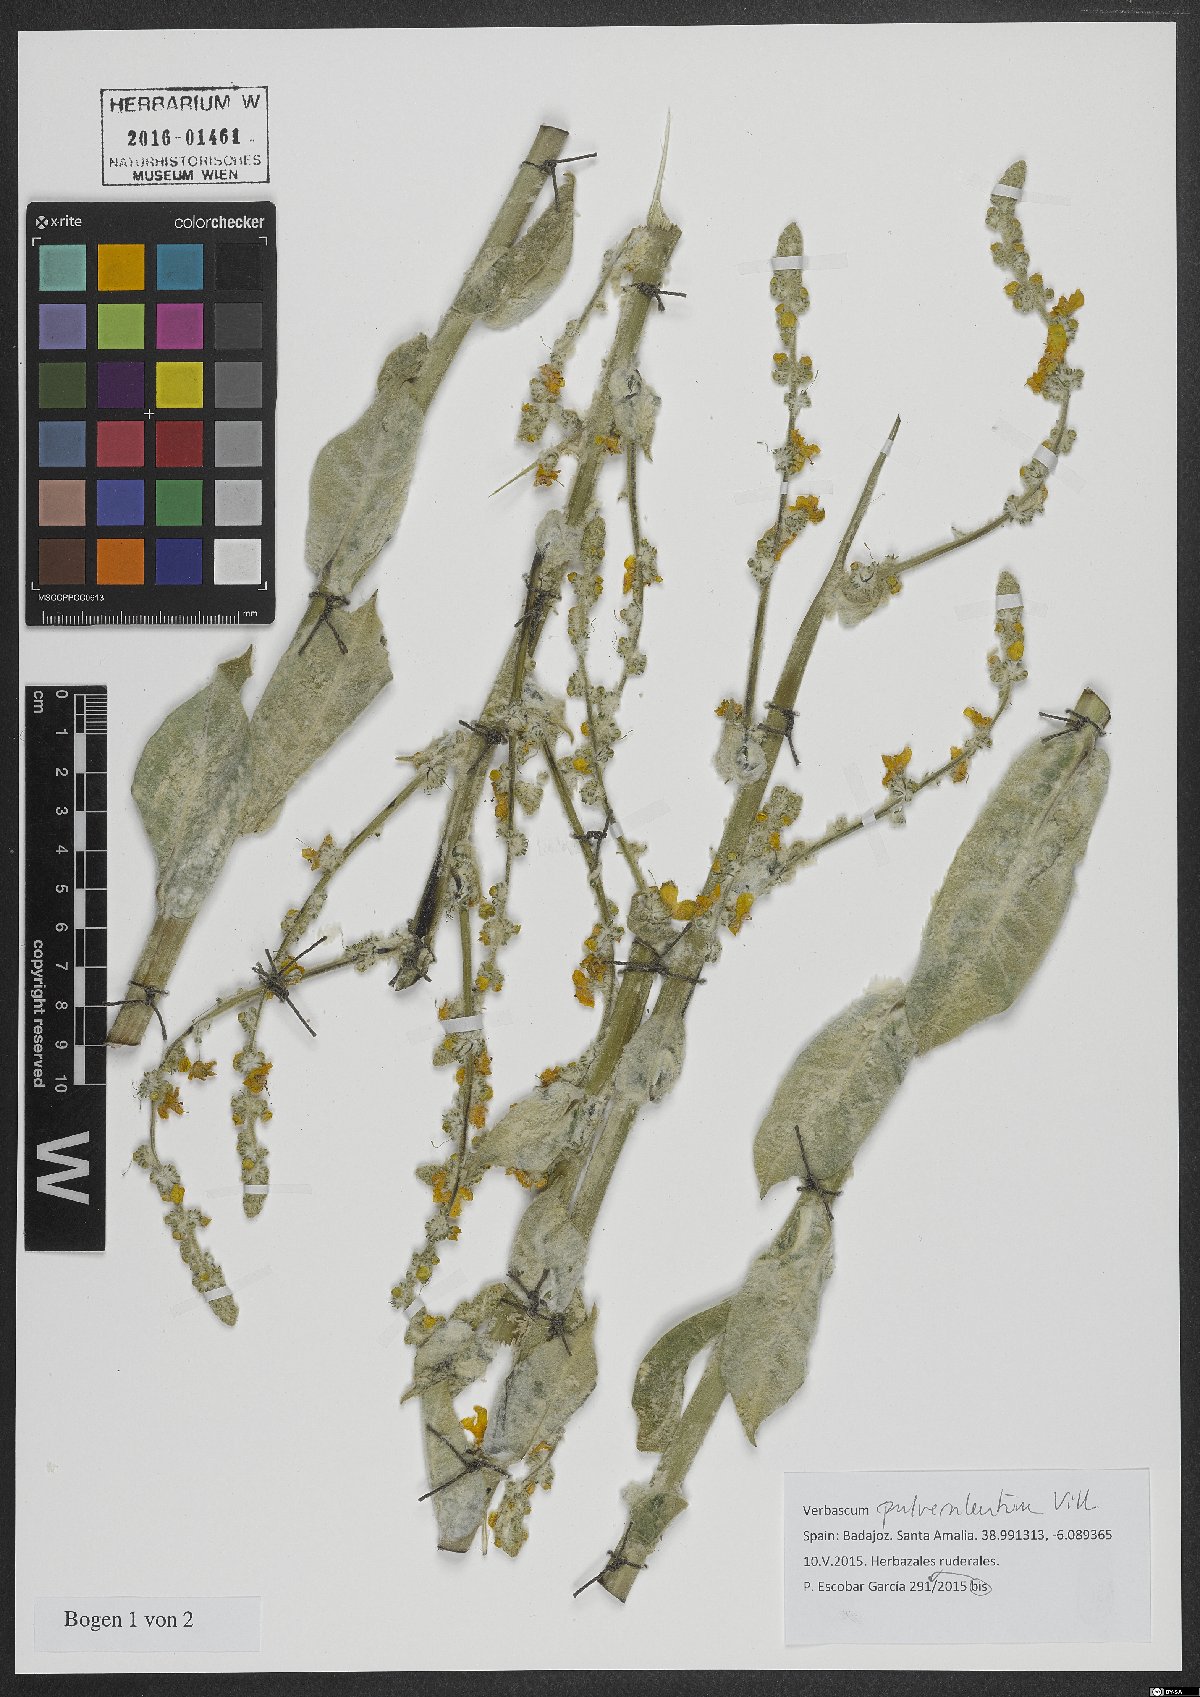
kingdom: Plantae
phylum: Tracheophyta
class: Magnoliopsida
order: Lamiales
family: Scrophulariaceae
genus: Verbascum
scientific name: Verbascum pulverulentum
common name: Broad-leaf mullein
